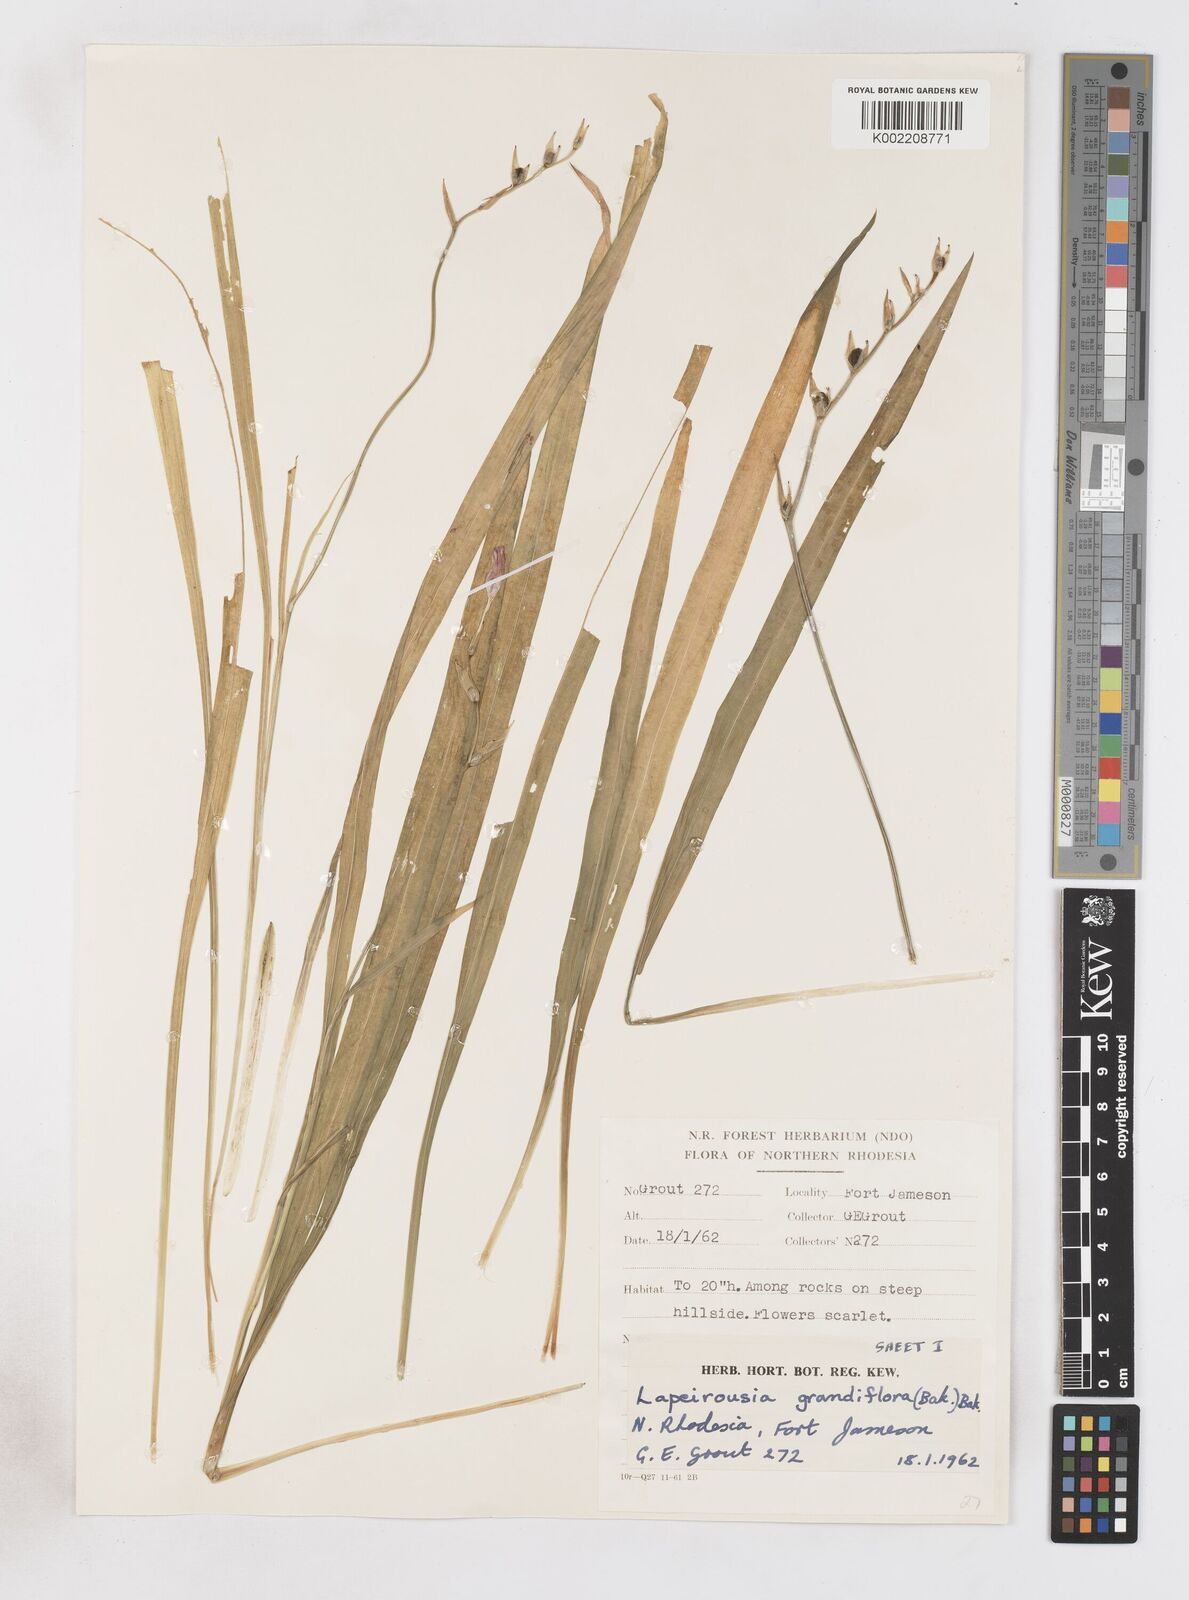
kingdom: Plantae
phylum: Tracheophyta
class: Liliopsida
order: Asparagales
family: Iridaceae
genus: Freesia
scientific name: Freesia grandiflora
